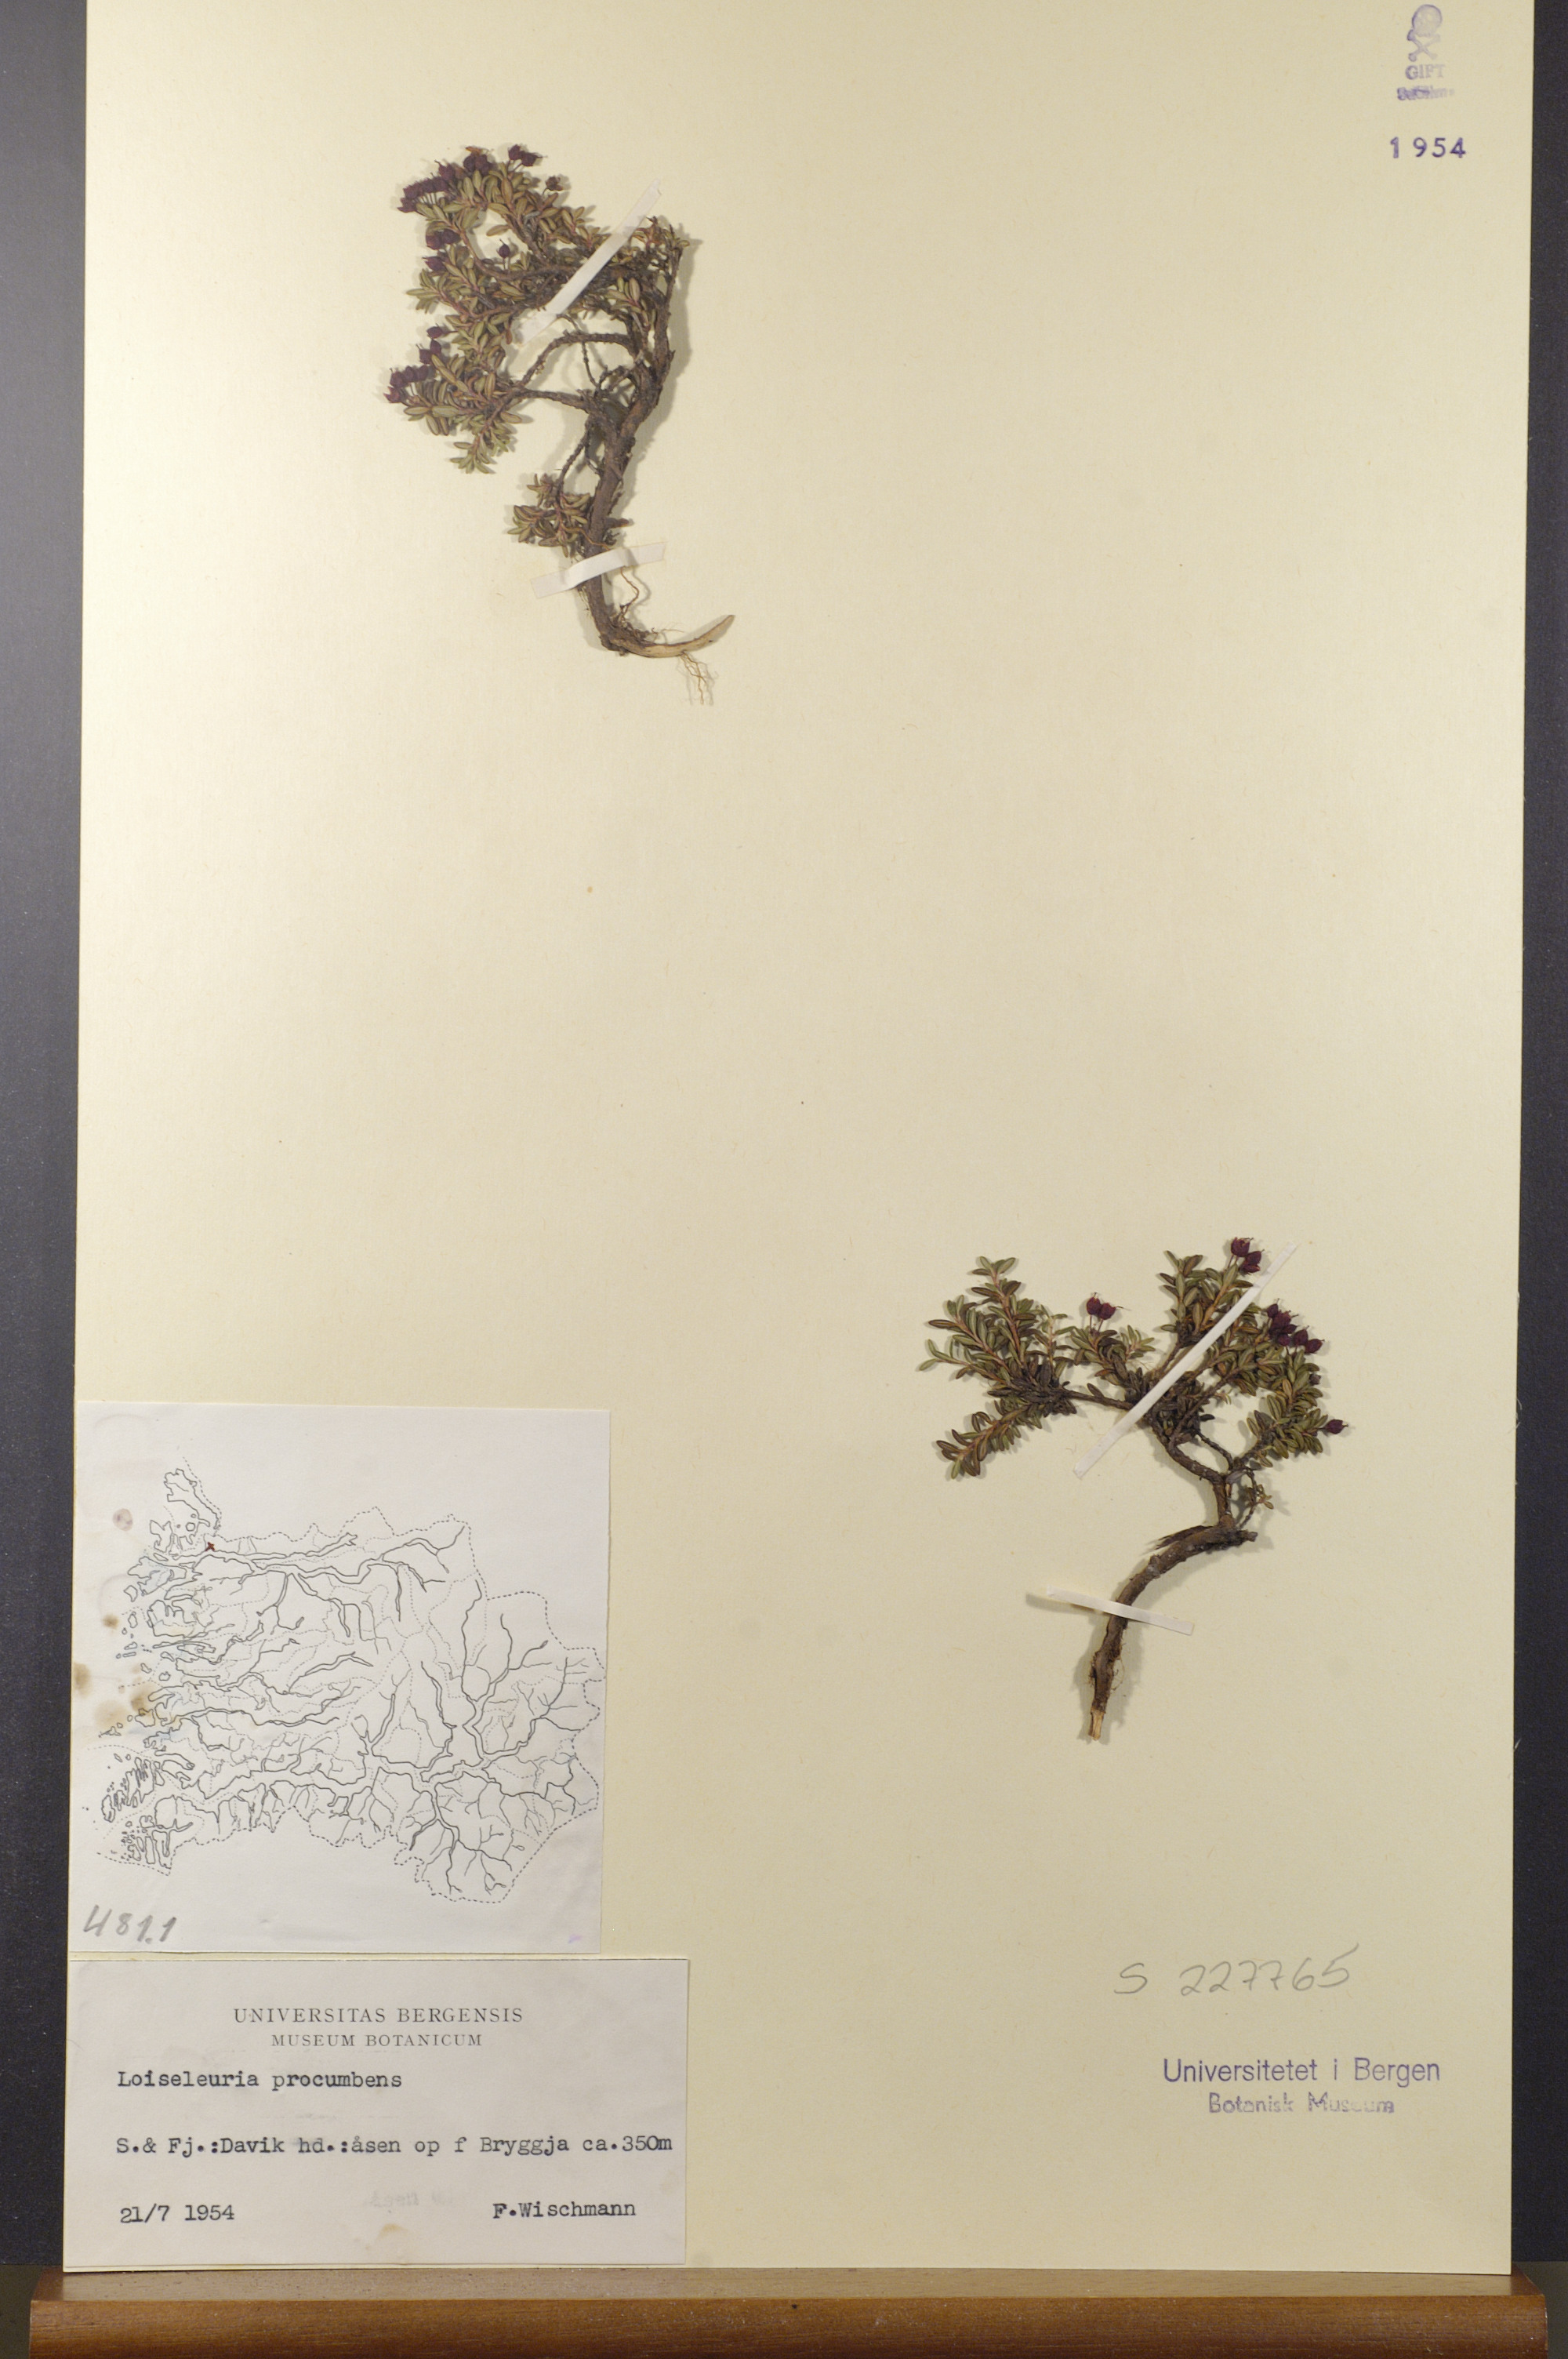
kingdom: Plantae
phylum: Tracheophyta
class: Magnoliopsida
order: Ericales
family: Ericaceae
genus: Kalmia
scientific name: Kalmia procumbens
